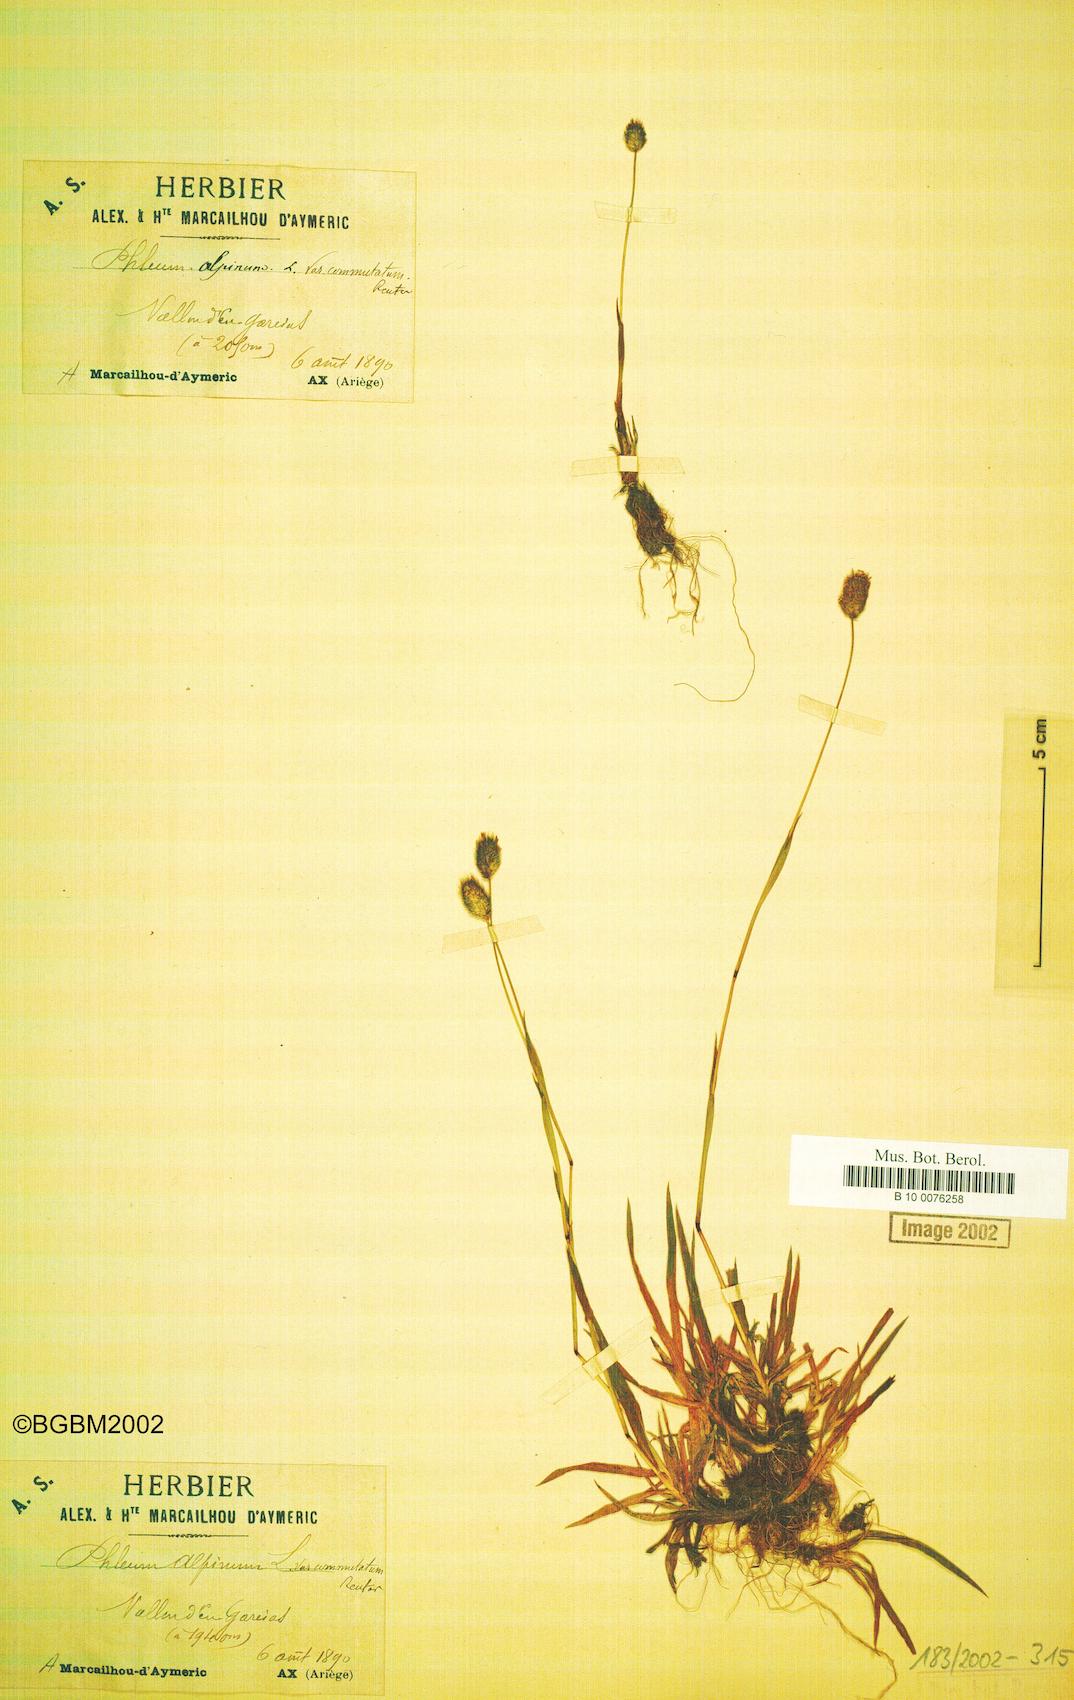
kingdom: Plantae
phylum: Tracheophyta
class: Liliopsida
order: Poales
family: Poaceae
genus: Phleum
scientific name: Phleum alpinum
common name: Alpine cat's-tail
